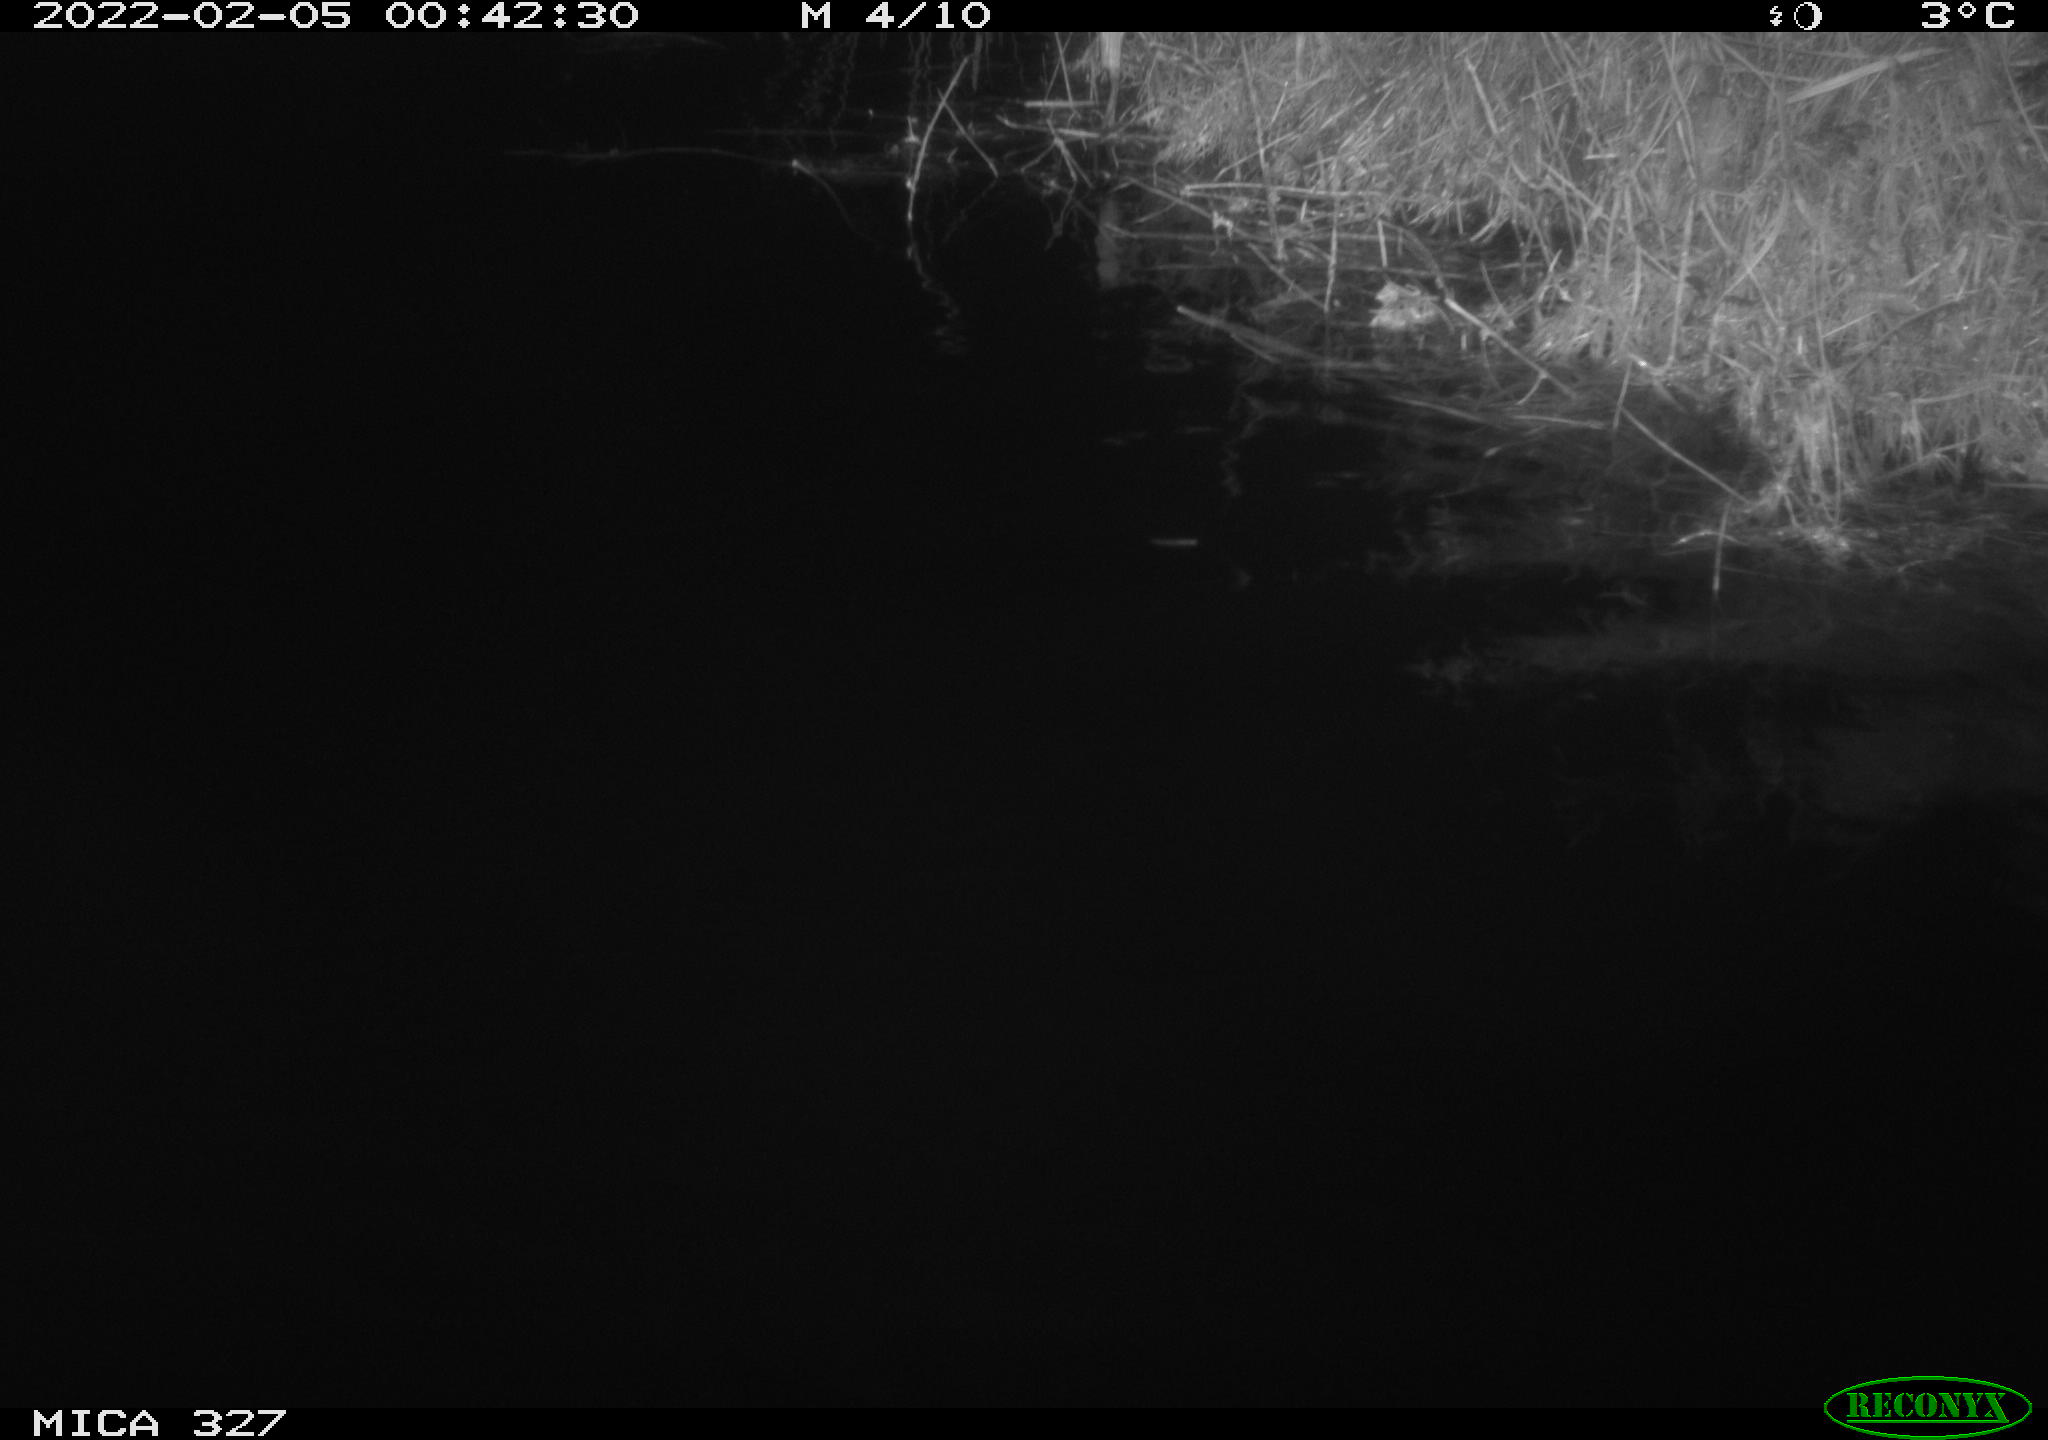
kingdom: Animalia
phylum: Chordata
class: Mammalia
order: Rodentia
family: Cricetidae
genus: Ondatra
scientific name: Ondatra zibethicus
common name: Muskrat
